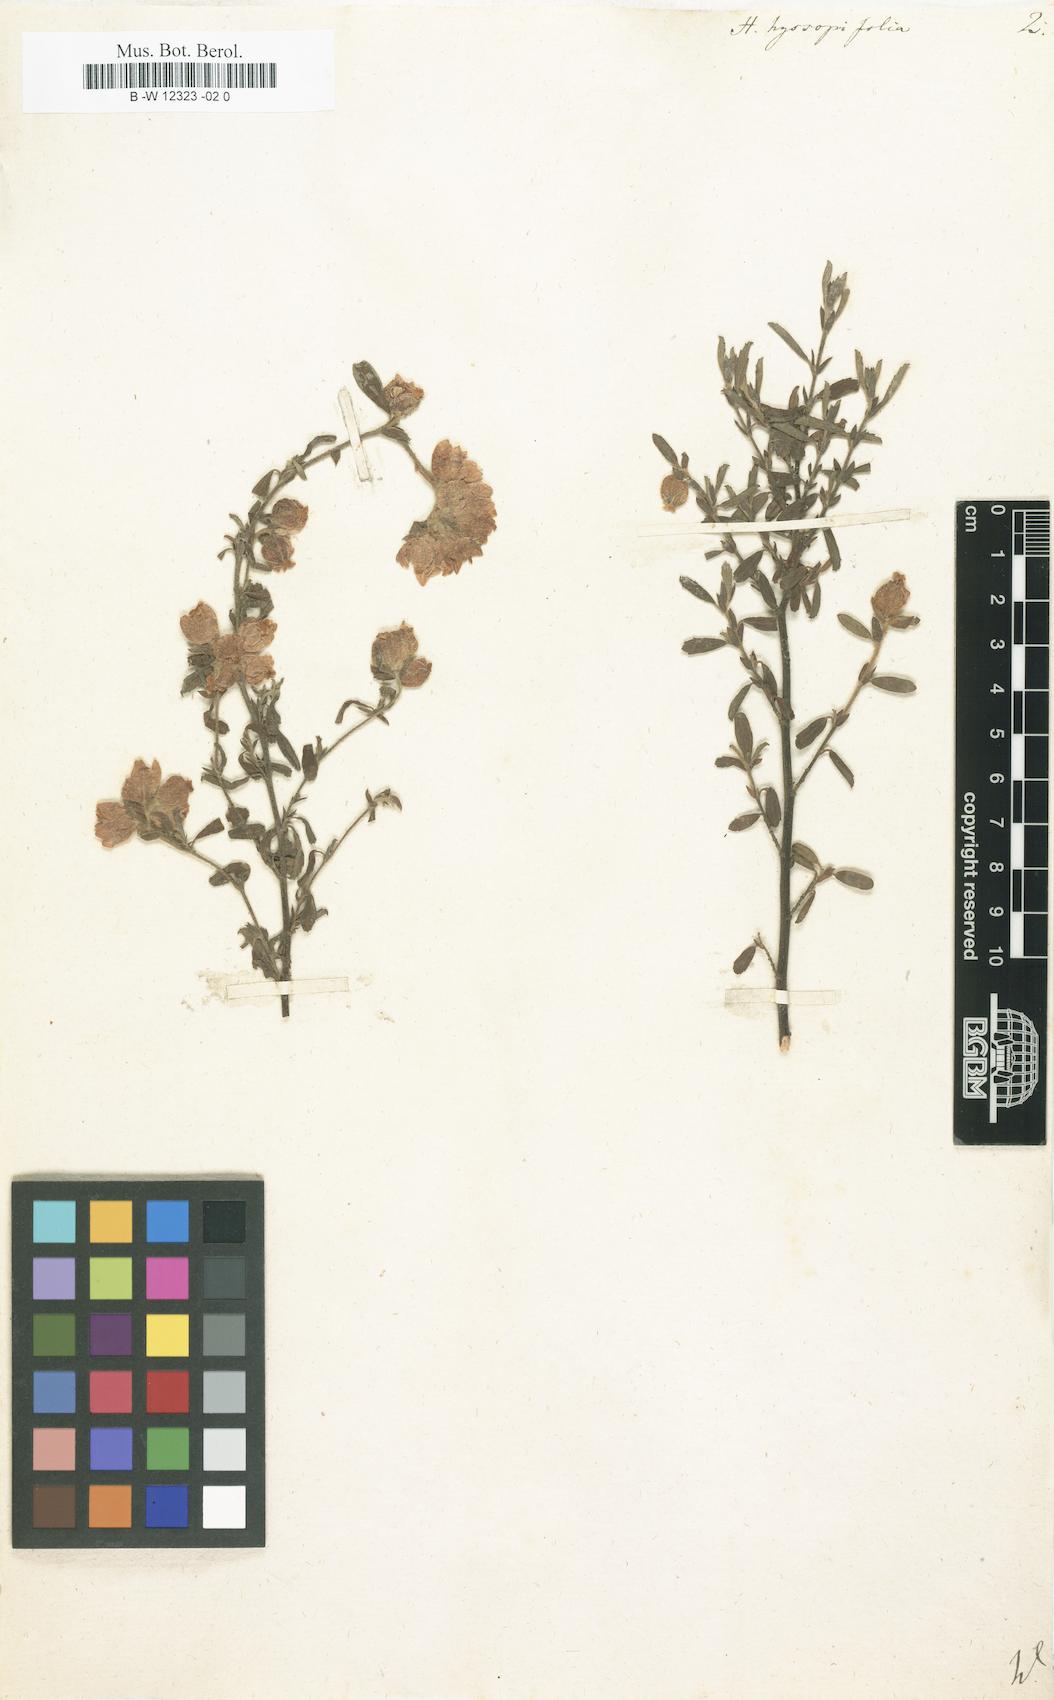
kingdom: Plantae
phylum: Tracheophyta
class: Magnoliopsida
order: Malvales
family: Malvaceae
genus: Hermannia
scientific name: Hermannia hyssopifolia
